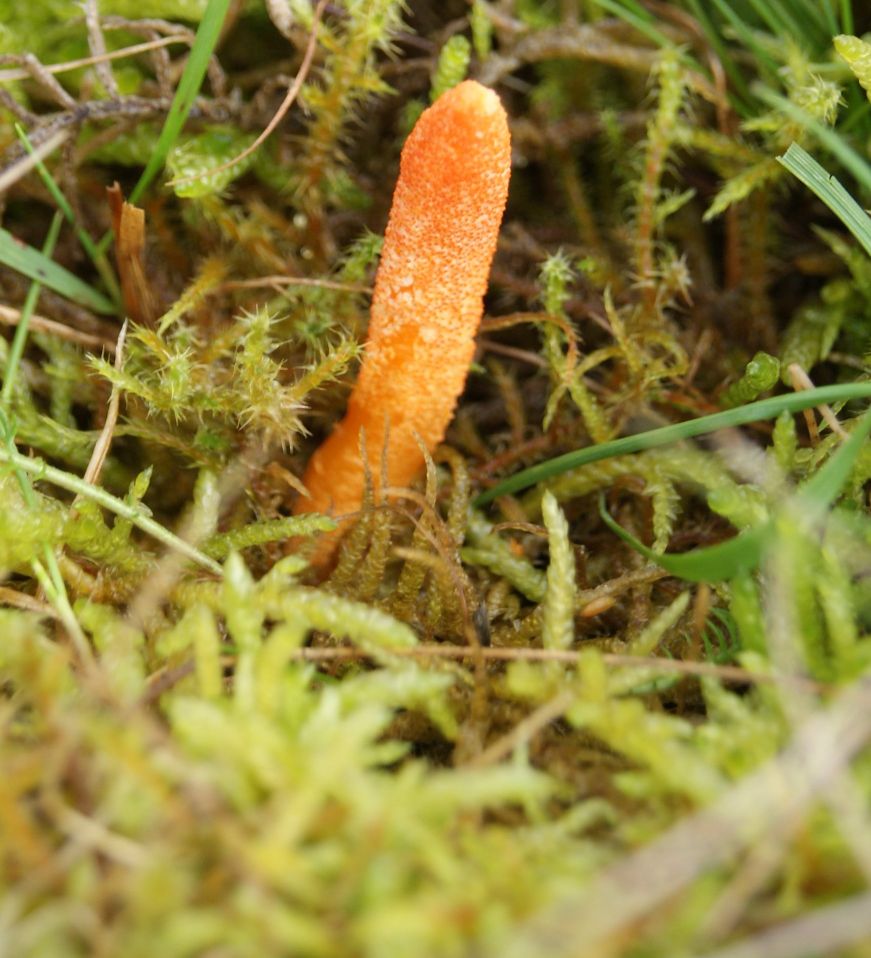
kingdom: Fungi
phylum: Ascomycota
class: Sordariomycetes
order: Hypocreales
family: Cordycipitaceae
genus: Cordyceps
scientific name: Cordyceps militaris
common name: puppe-snyltekølle
